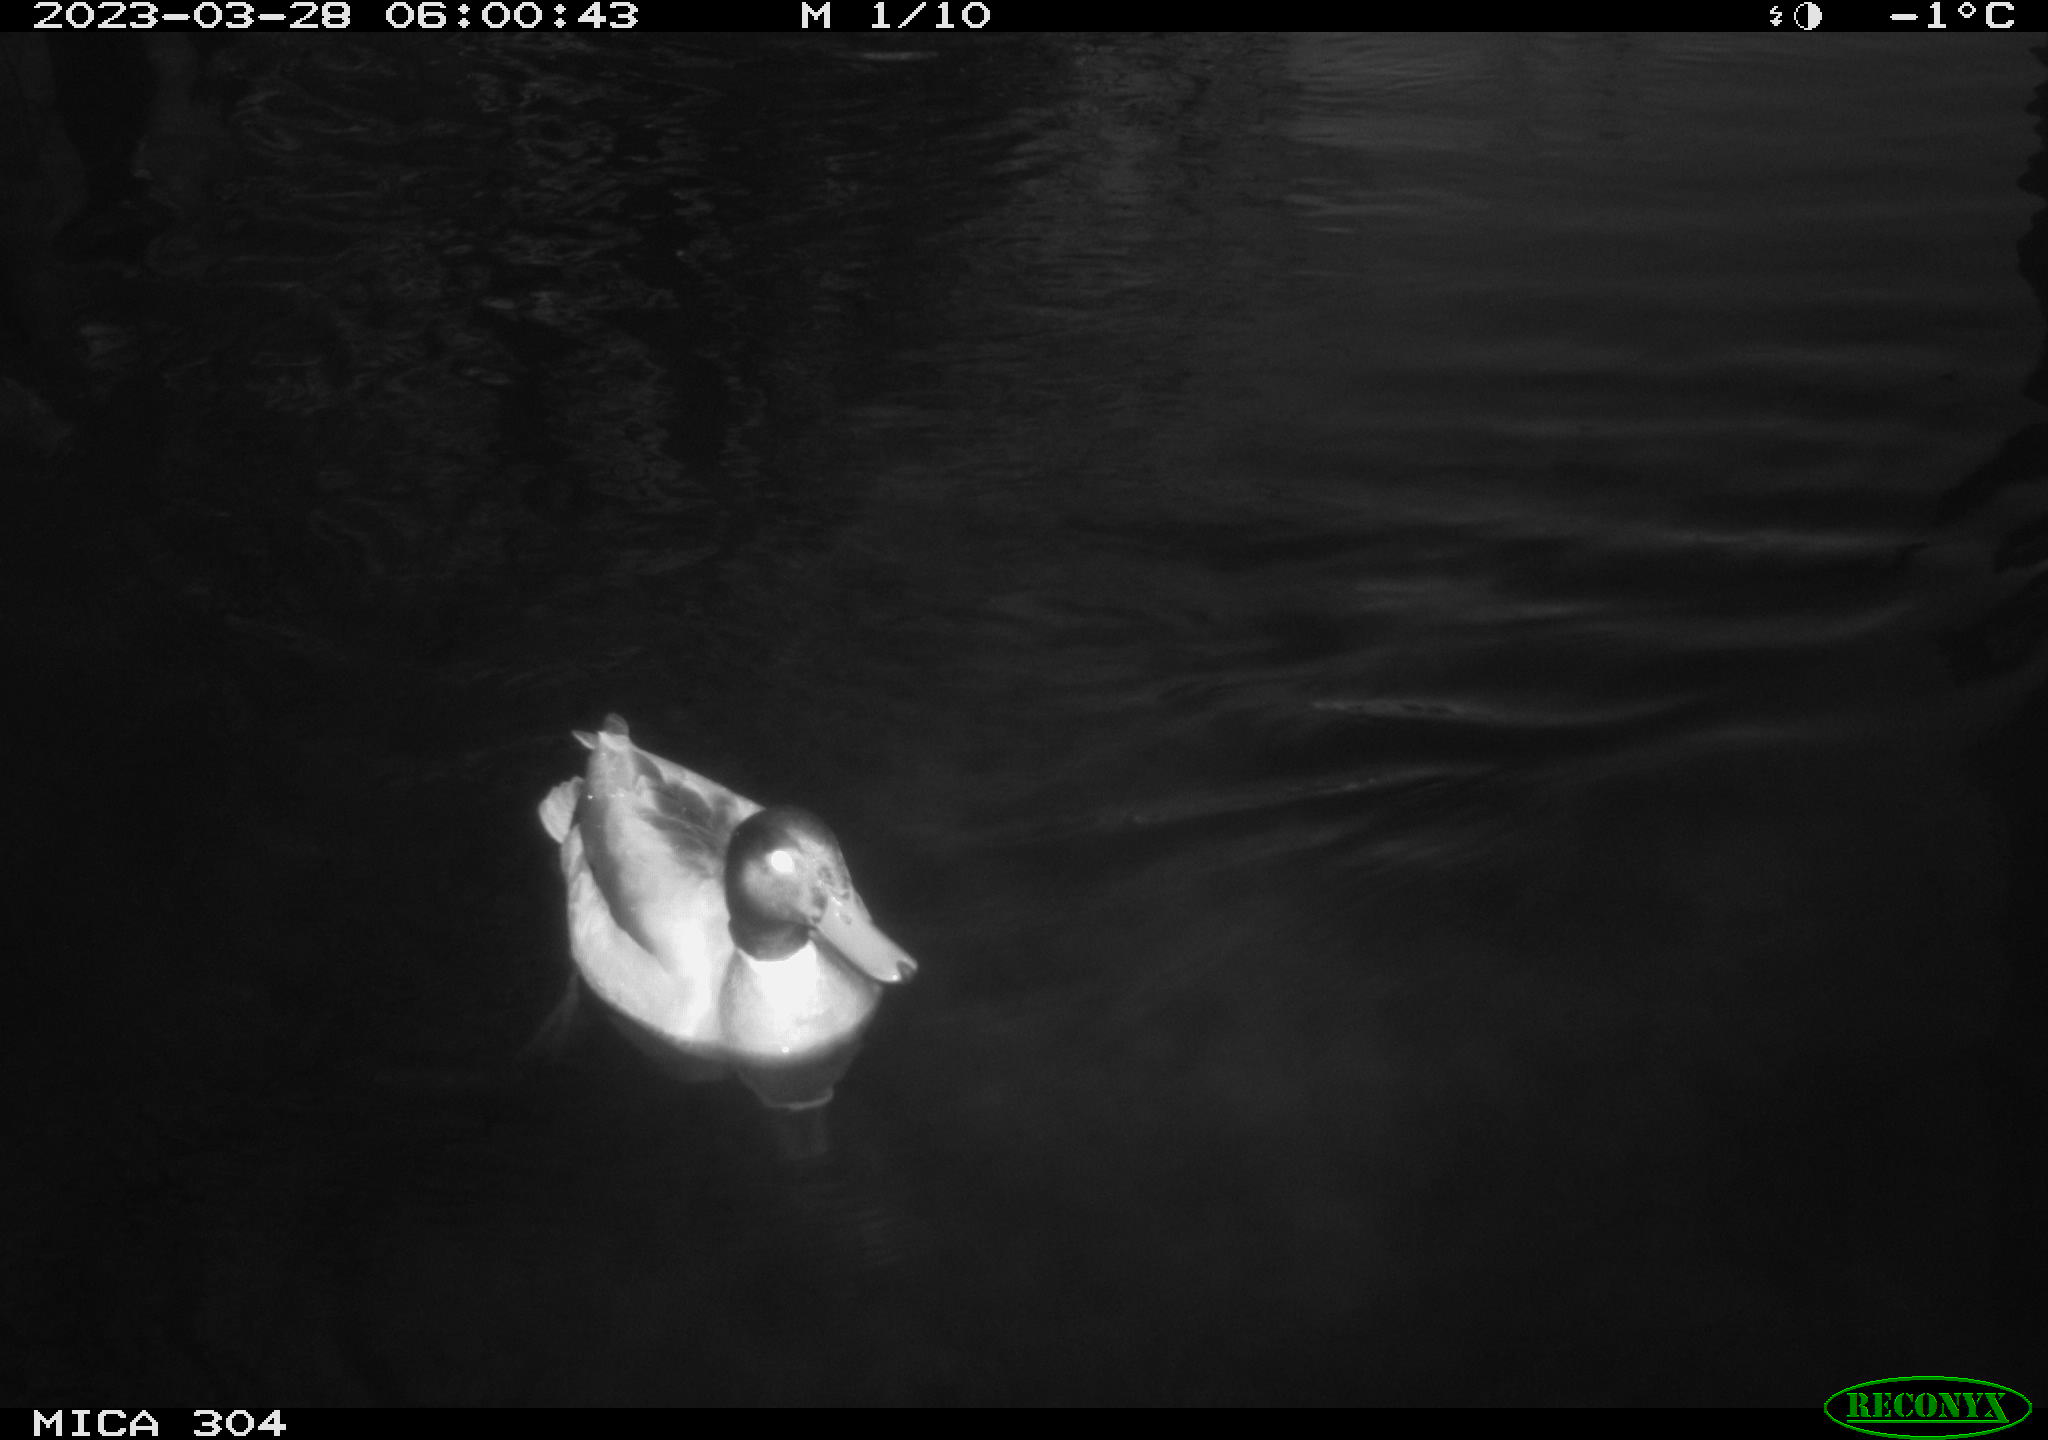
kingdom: Animalia
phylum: Chordata
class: Aves
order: Anseriformes
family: Anatidae
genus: Anas
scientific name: Anas
